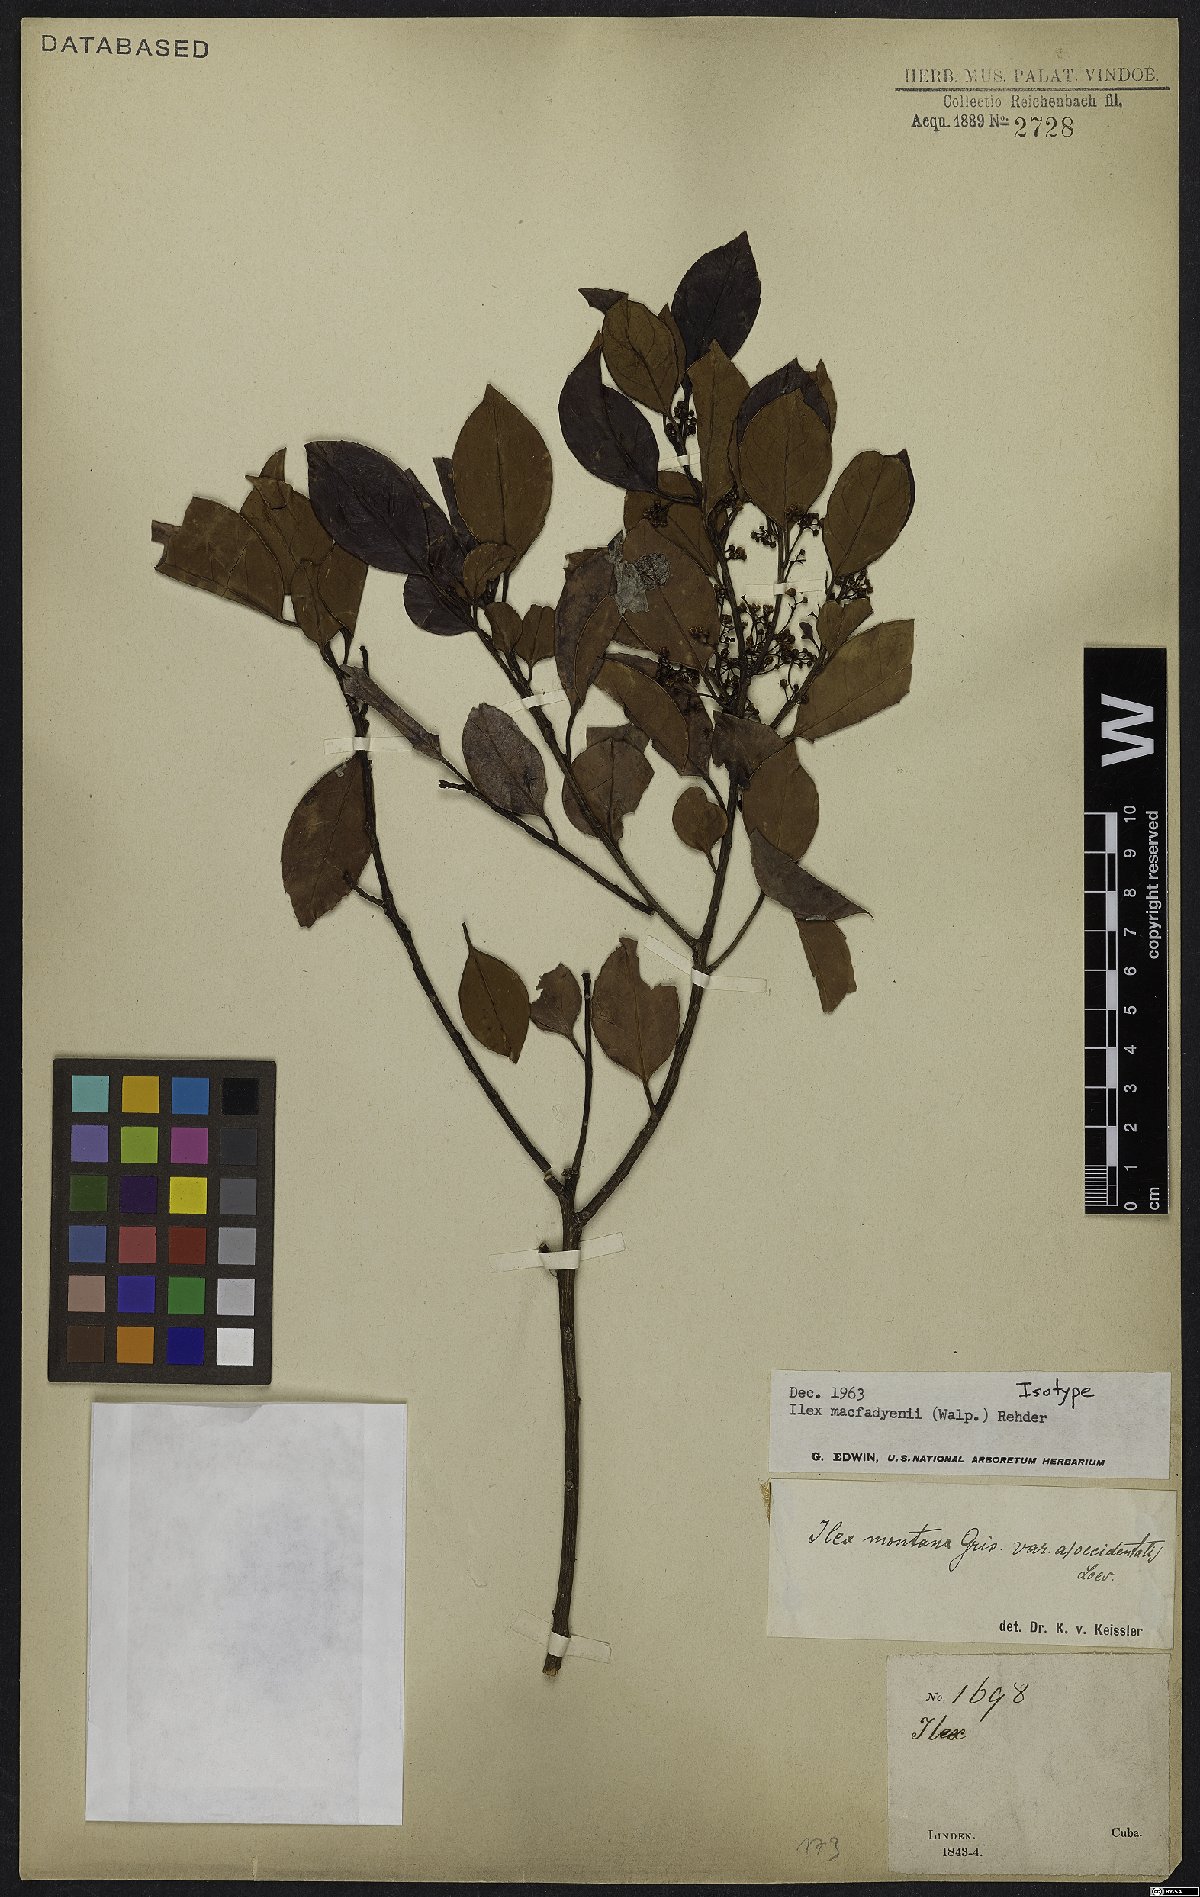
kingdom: Plantae
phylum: Tracheophyta
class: Magnoliopsida
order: Aquifoliales
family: Aquifoliaceae
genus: Ilex
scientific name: Ilex macfadyenii
